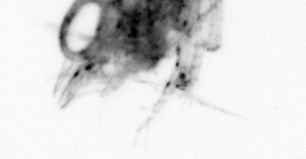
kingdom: Animalia
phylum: Arthropoda
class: Malacostraca
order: Decapoda
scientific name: Decapoda
